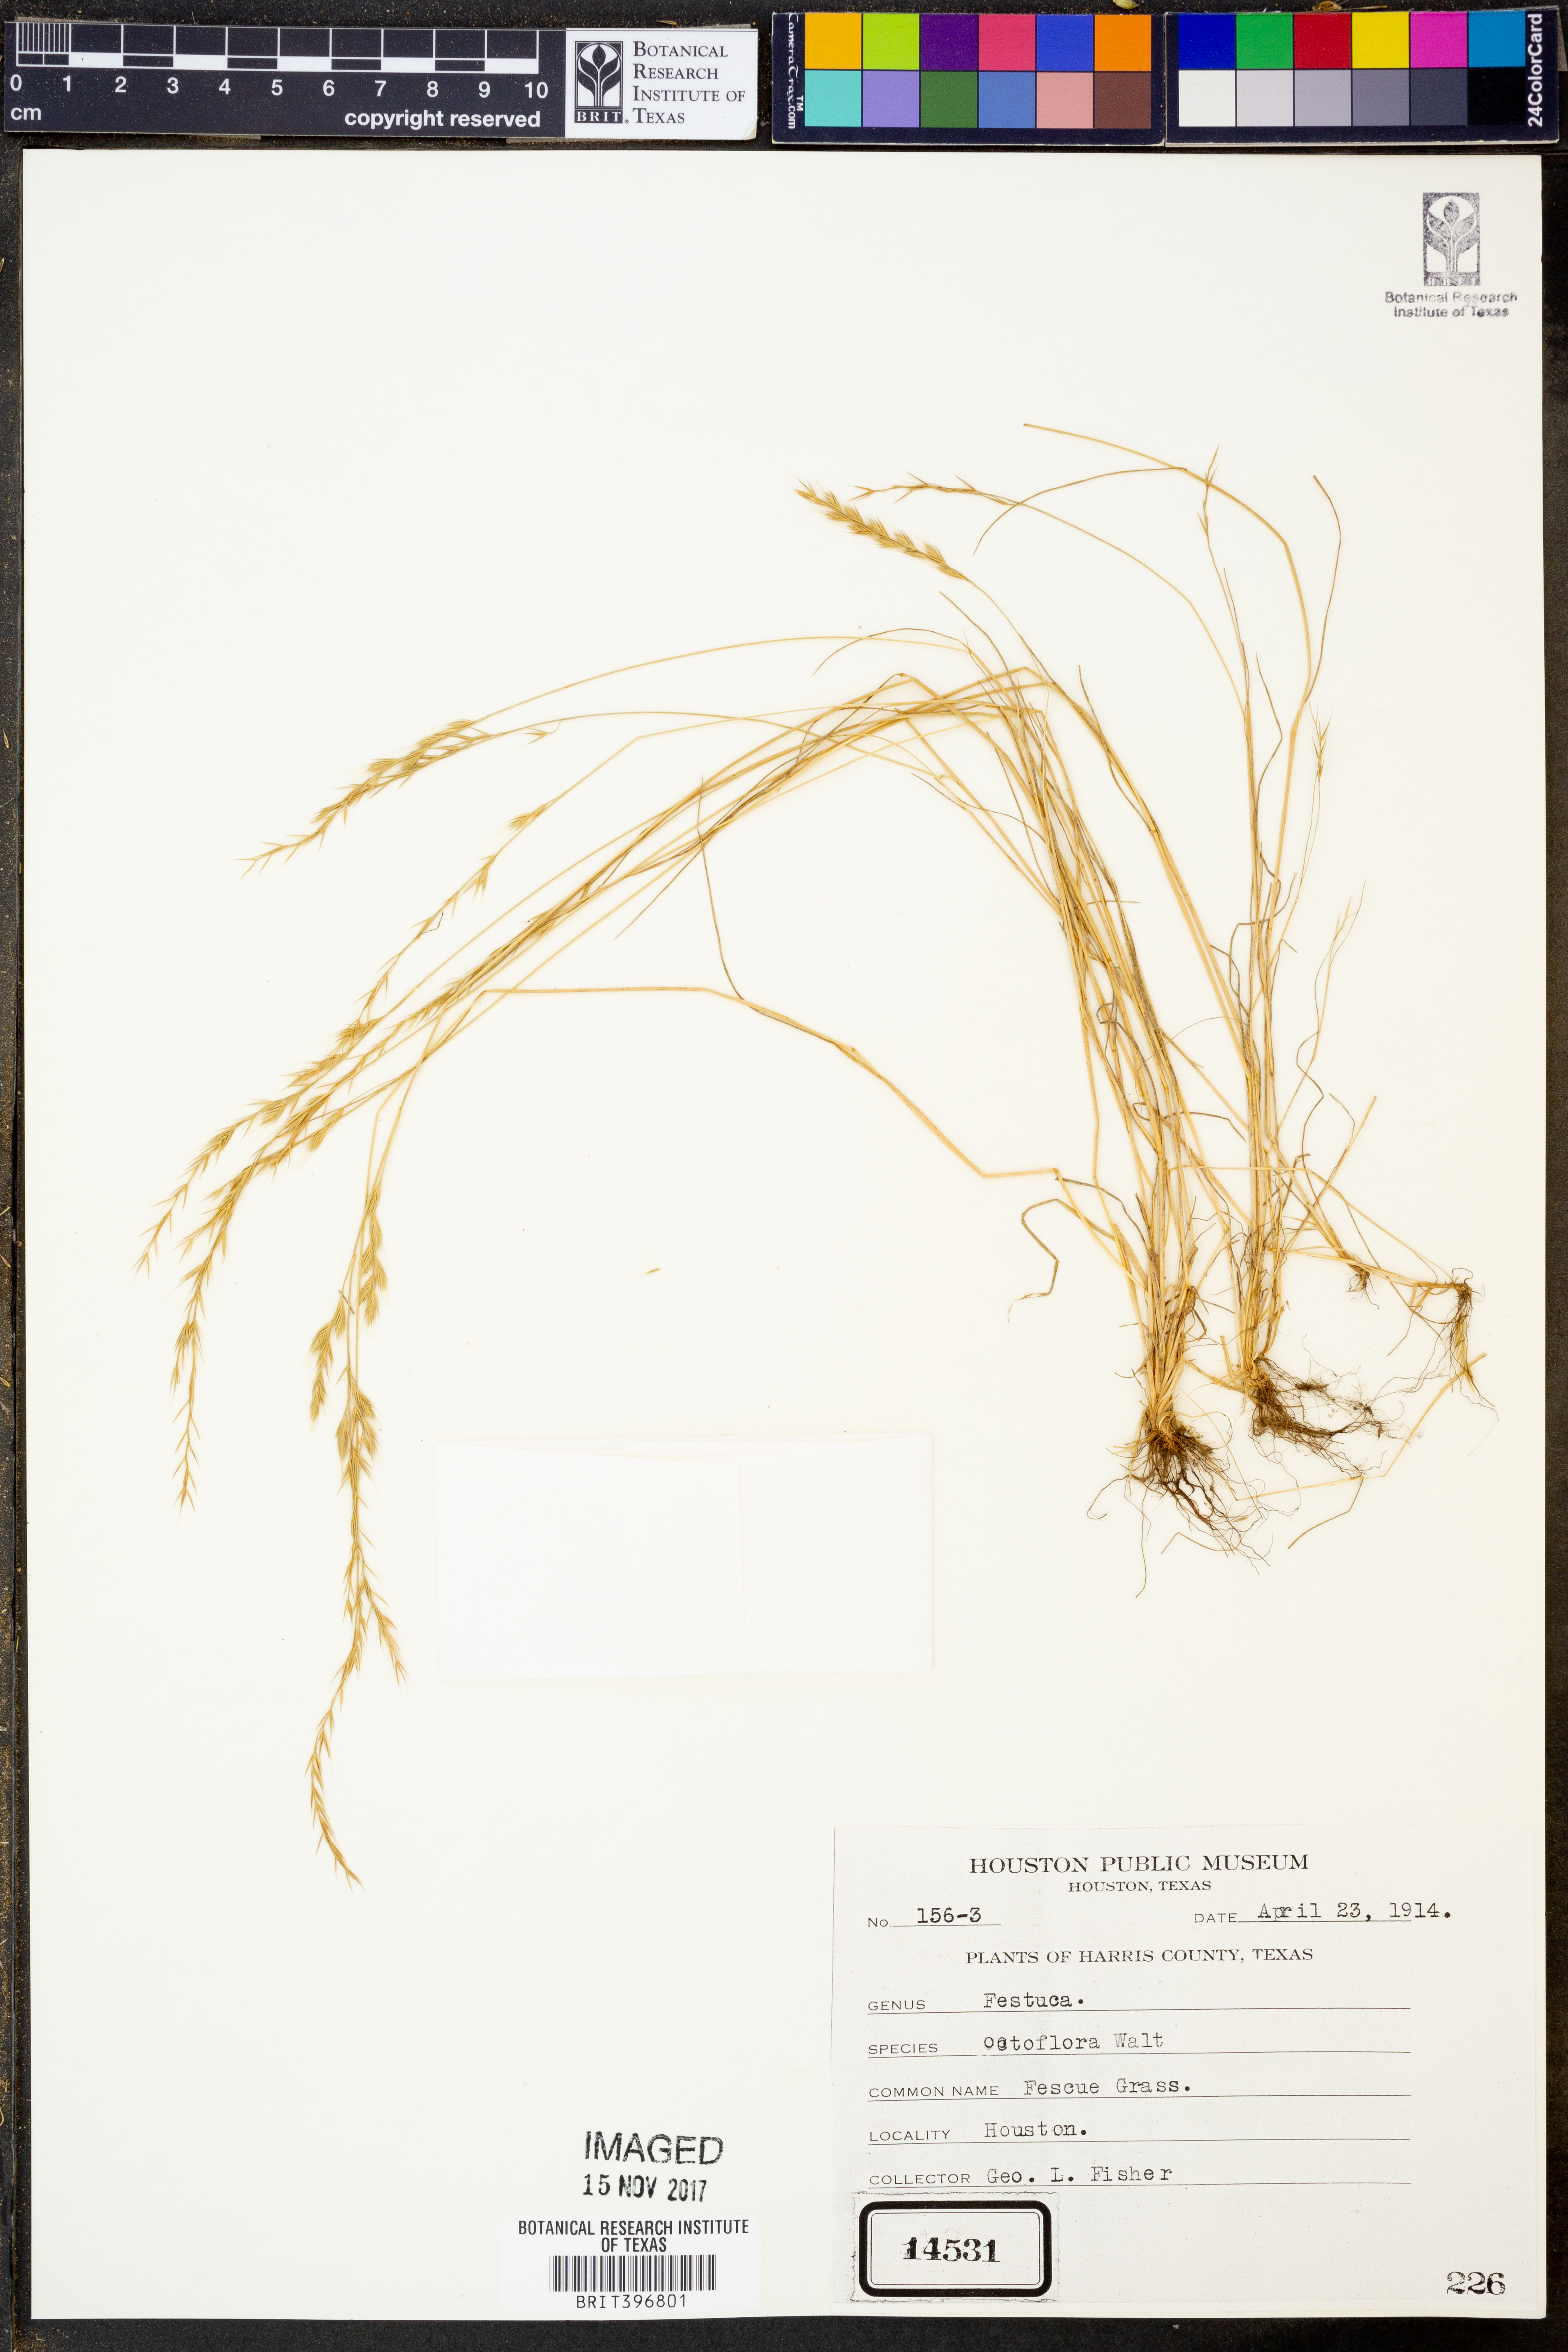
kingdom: Plantae
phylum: Tracheophyta
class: Liliopsida
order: Poales
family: Poaceae
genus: Festuca
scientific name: Festuca octoflora
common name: Sixweeks grass
